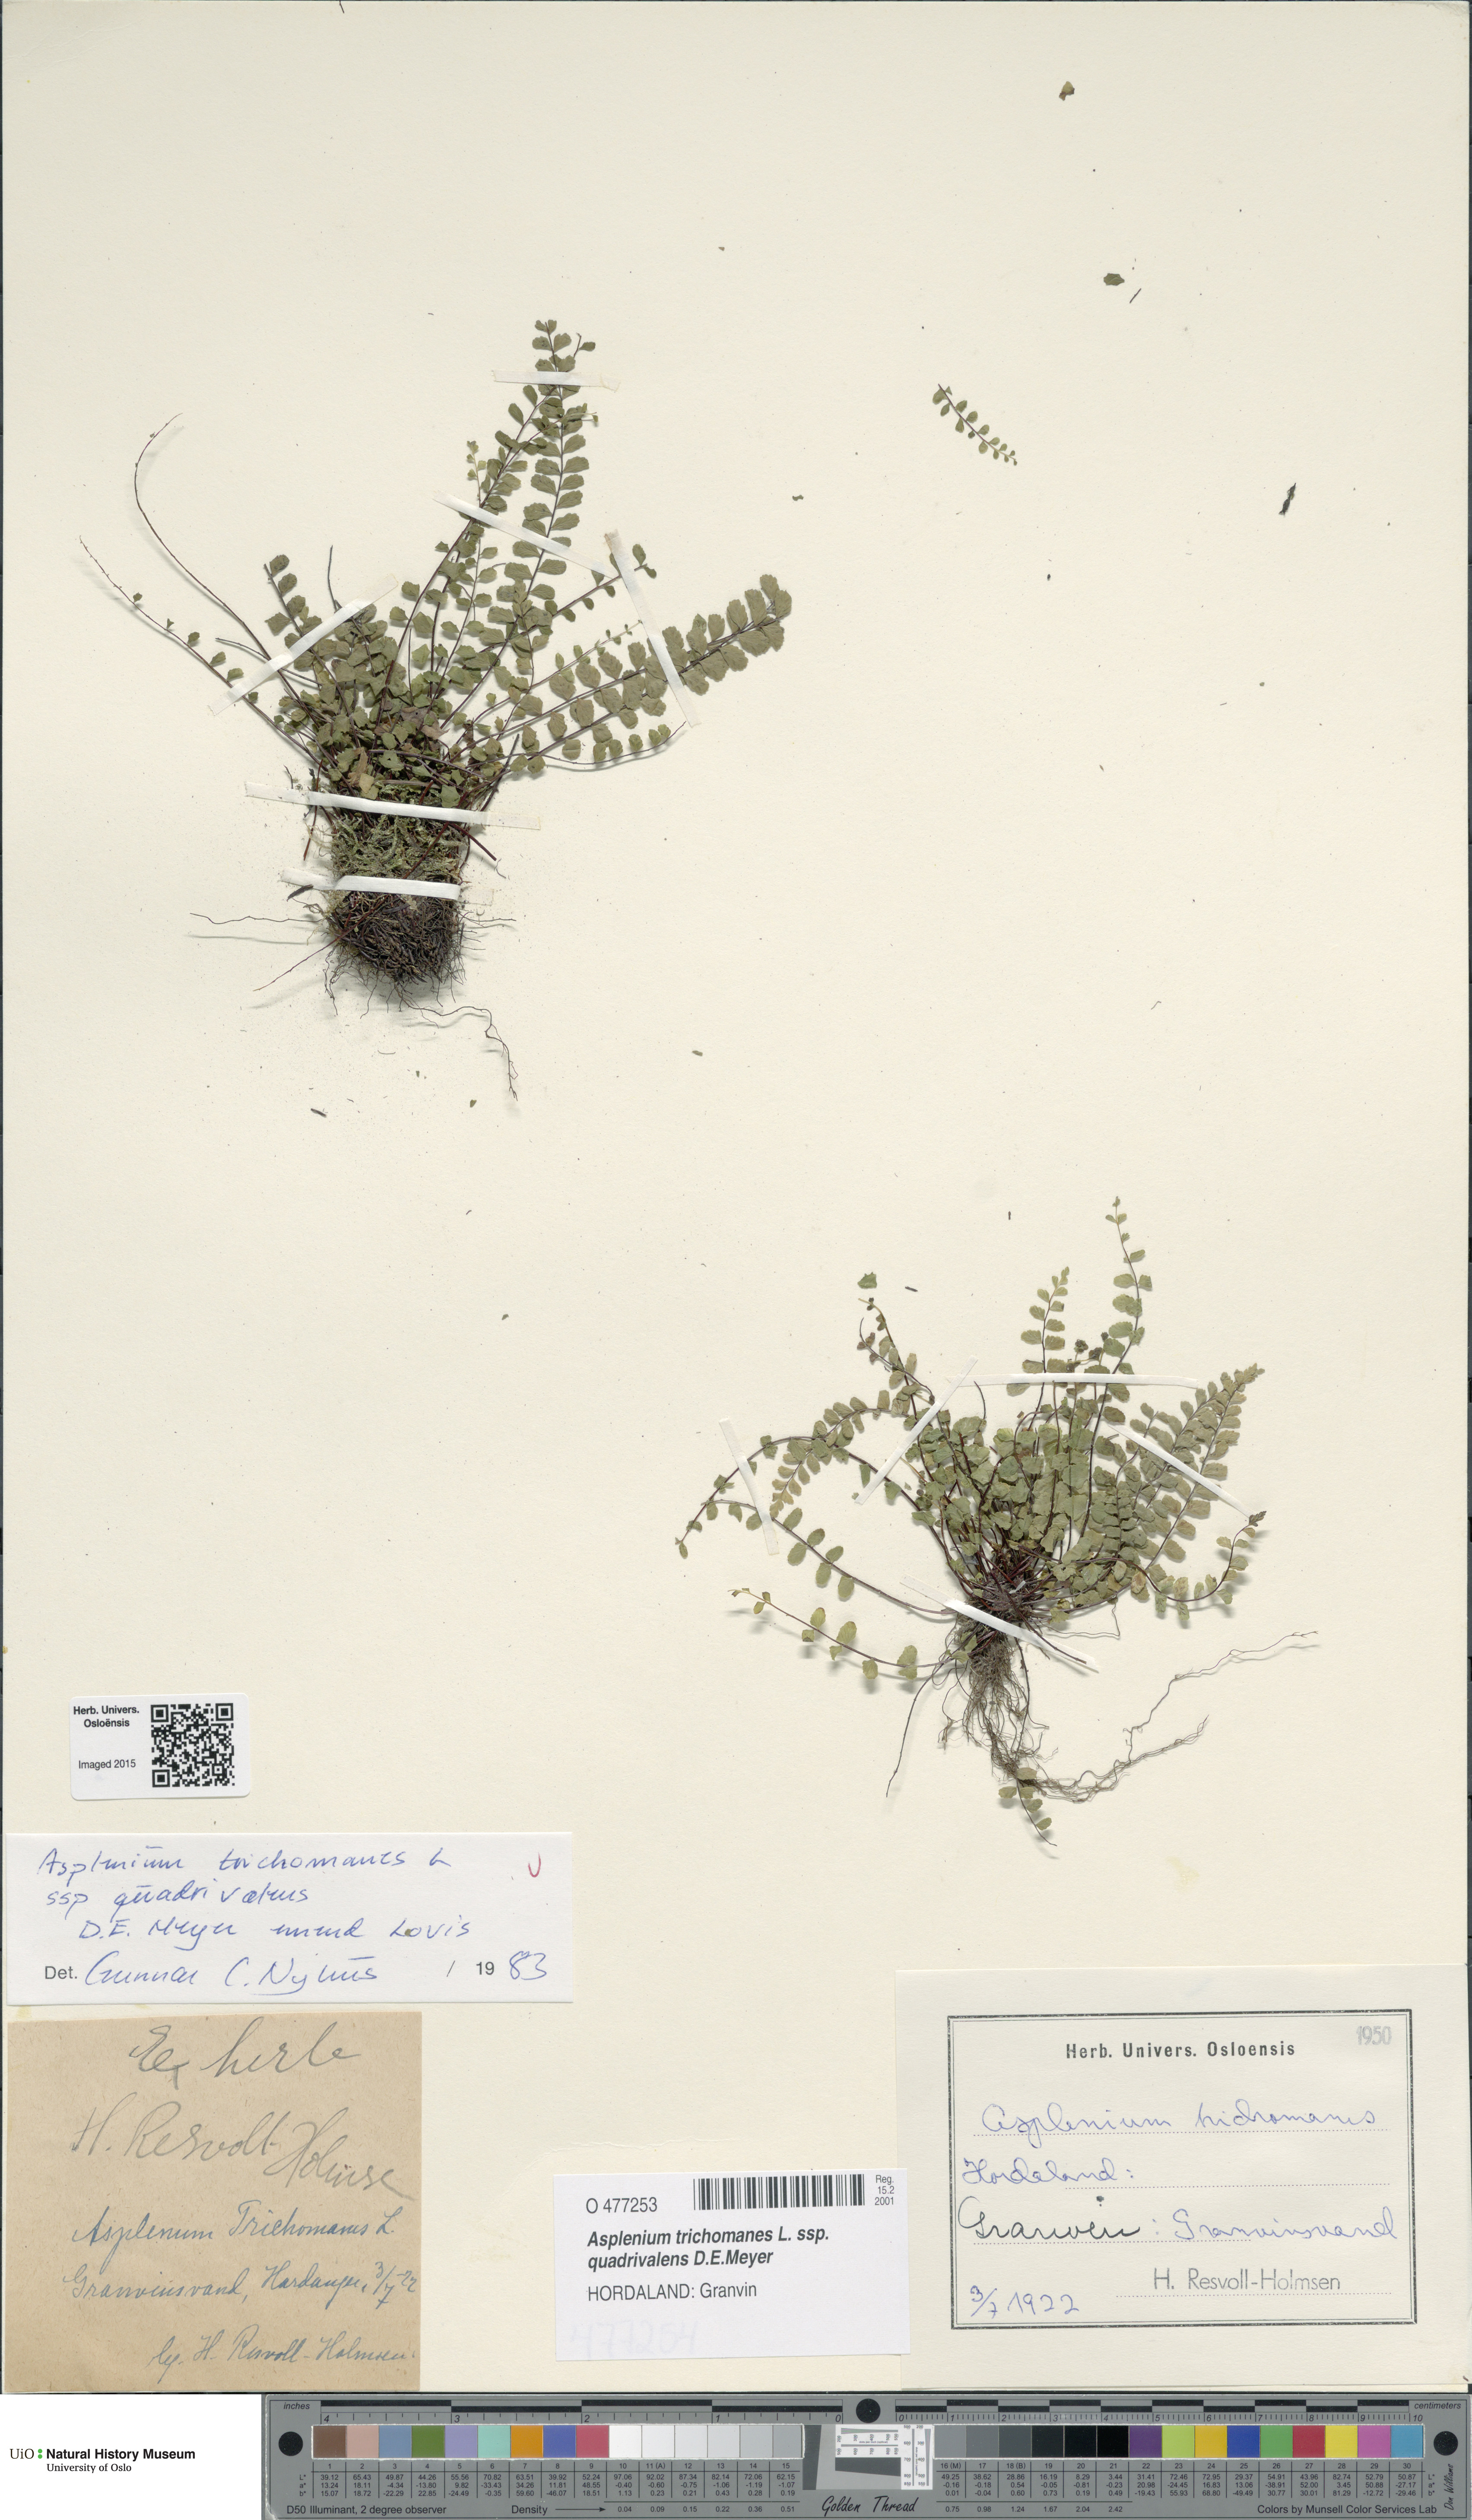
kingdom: Plantae
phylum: Tracheophyta
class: Polypodiopsida
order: Polypodiales
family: Aspleniaceae
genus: Asplenium
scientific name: Asplenium quadrivalens
